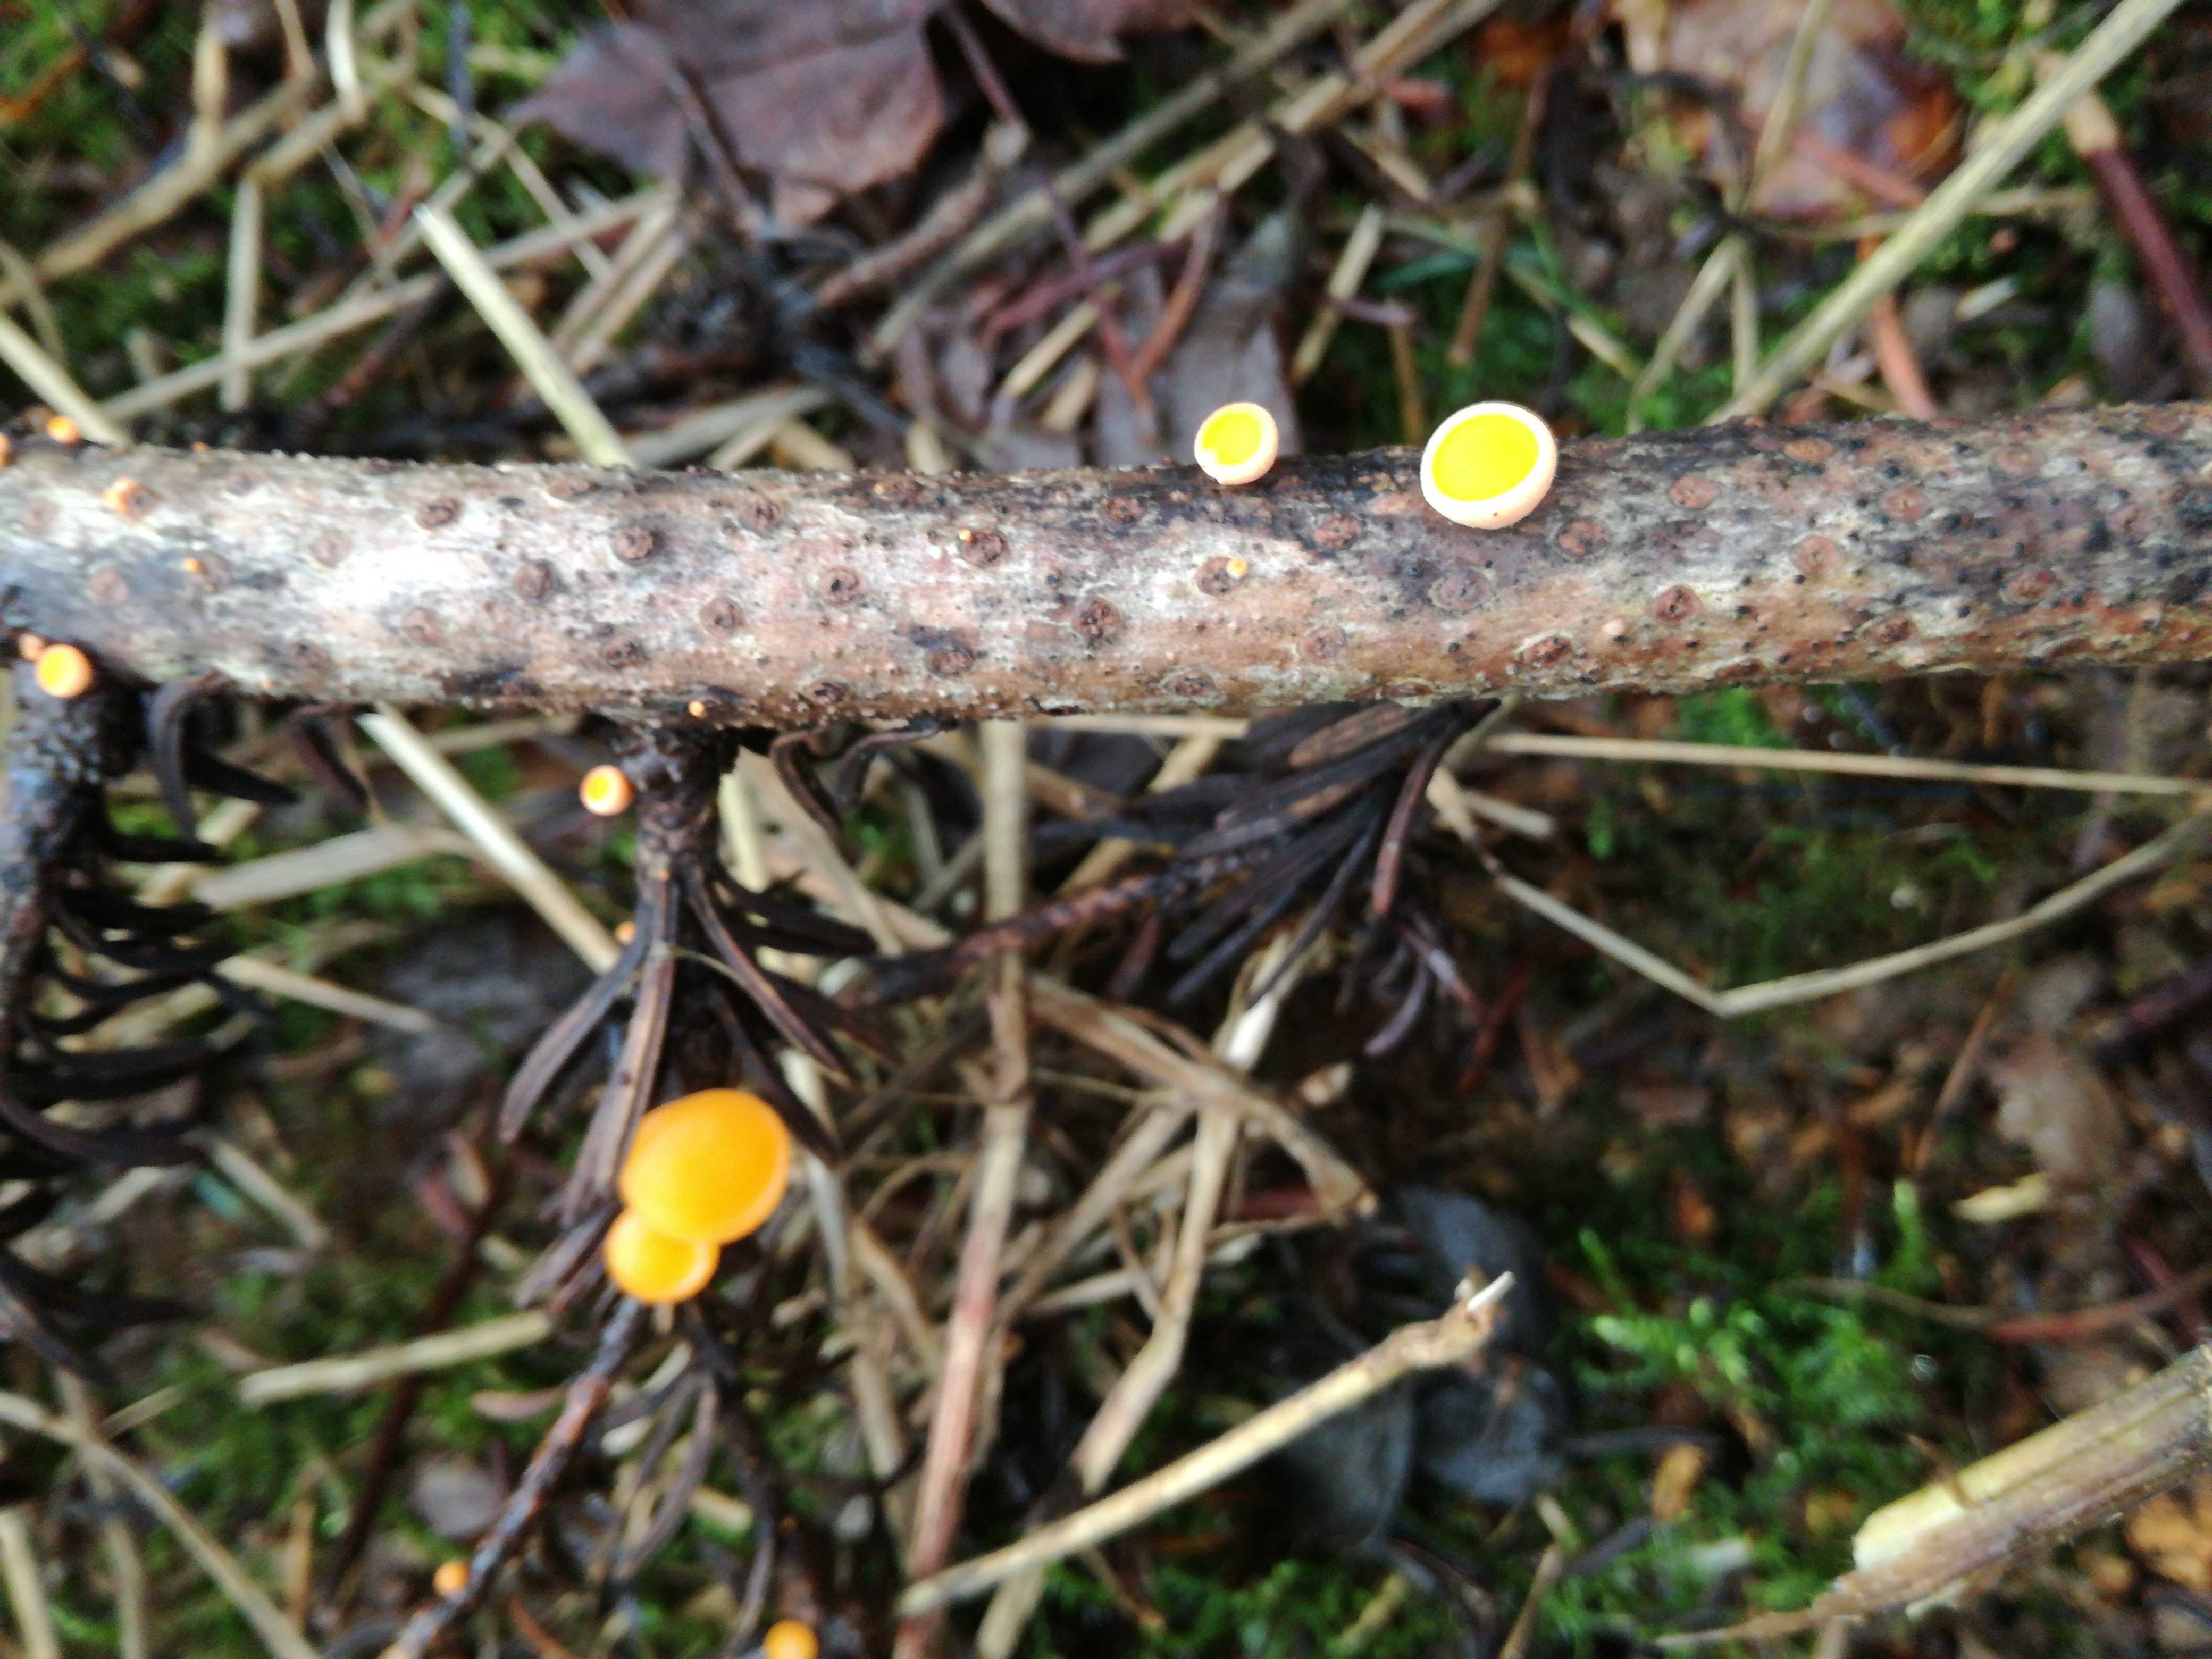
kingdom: Fungi
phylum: Ascomycota
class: Pezizomycetes
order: Pezizales
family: Sarcoscyphaceae
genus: Pithya
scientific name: Pithya vulgaris
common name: stor dukatbæger
